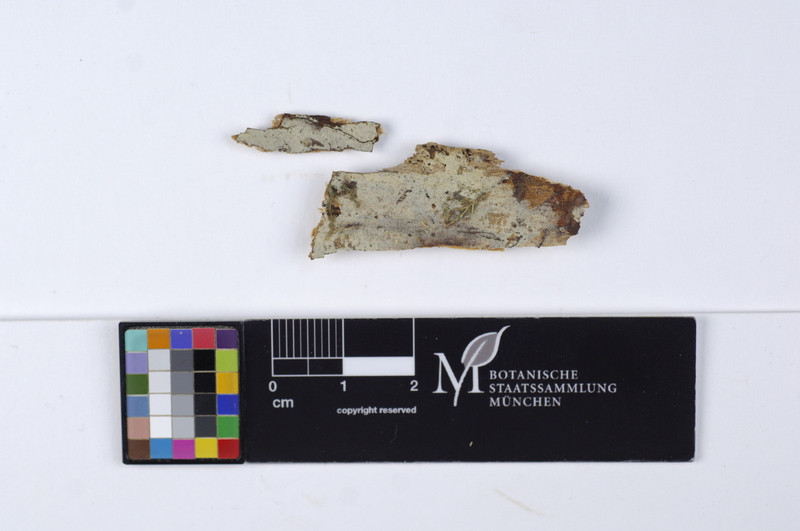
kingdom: Fungi
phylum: Basidiomycota
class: Agaricomycetes
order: Cantharellales
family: Botryobasidiaceae
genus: Botryobasidium
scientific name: Botryobasidium ellipsosporum
